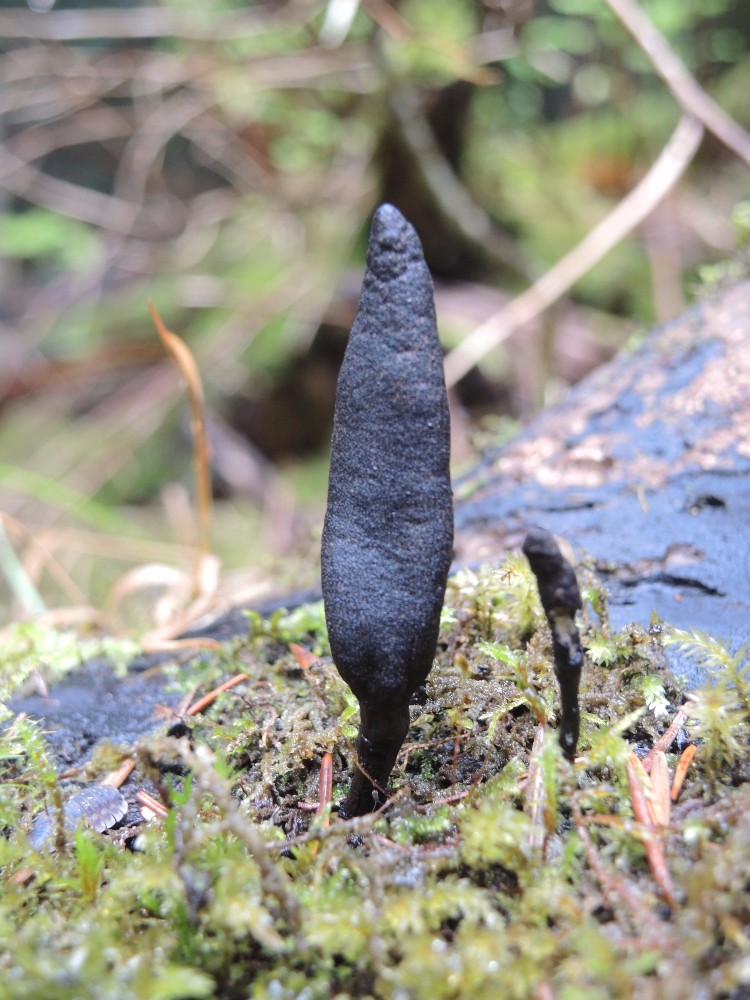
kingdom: Fungi
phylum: Ascomycota
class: Sordariomycetes
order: Xylariales
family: Xylariaceae
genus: Xylaria
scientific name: Xylaria longipes
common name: slank stødsvamp
